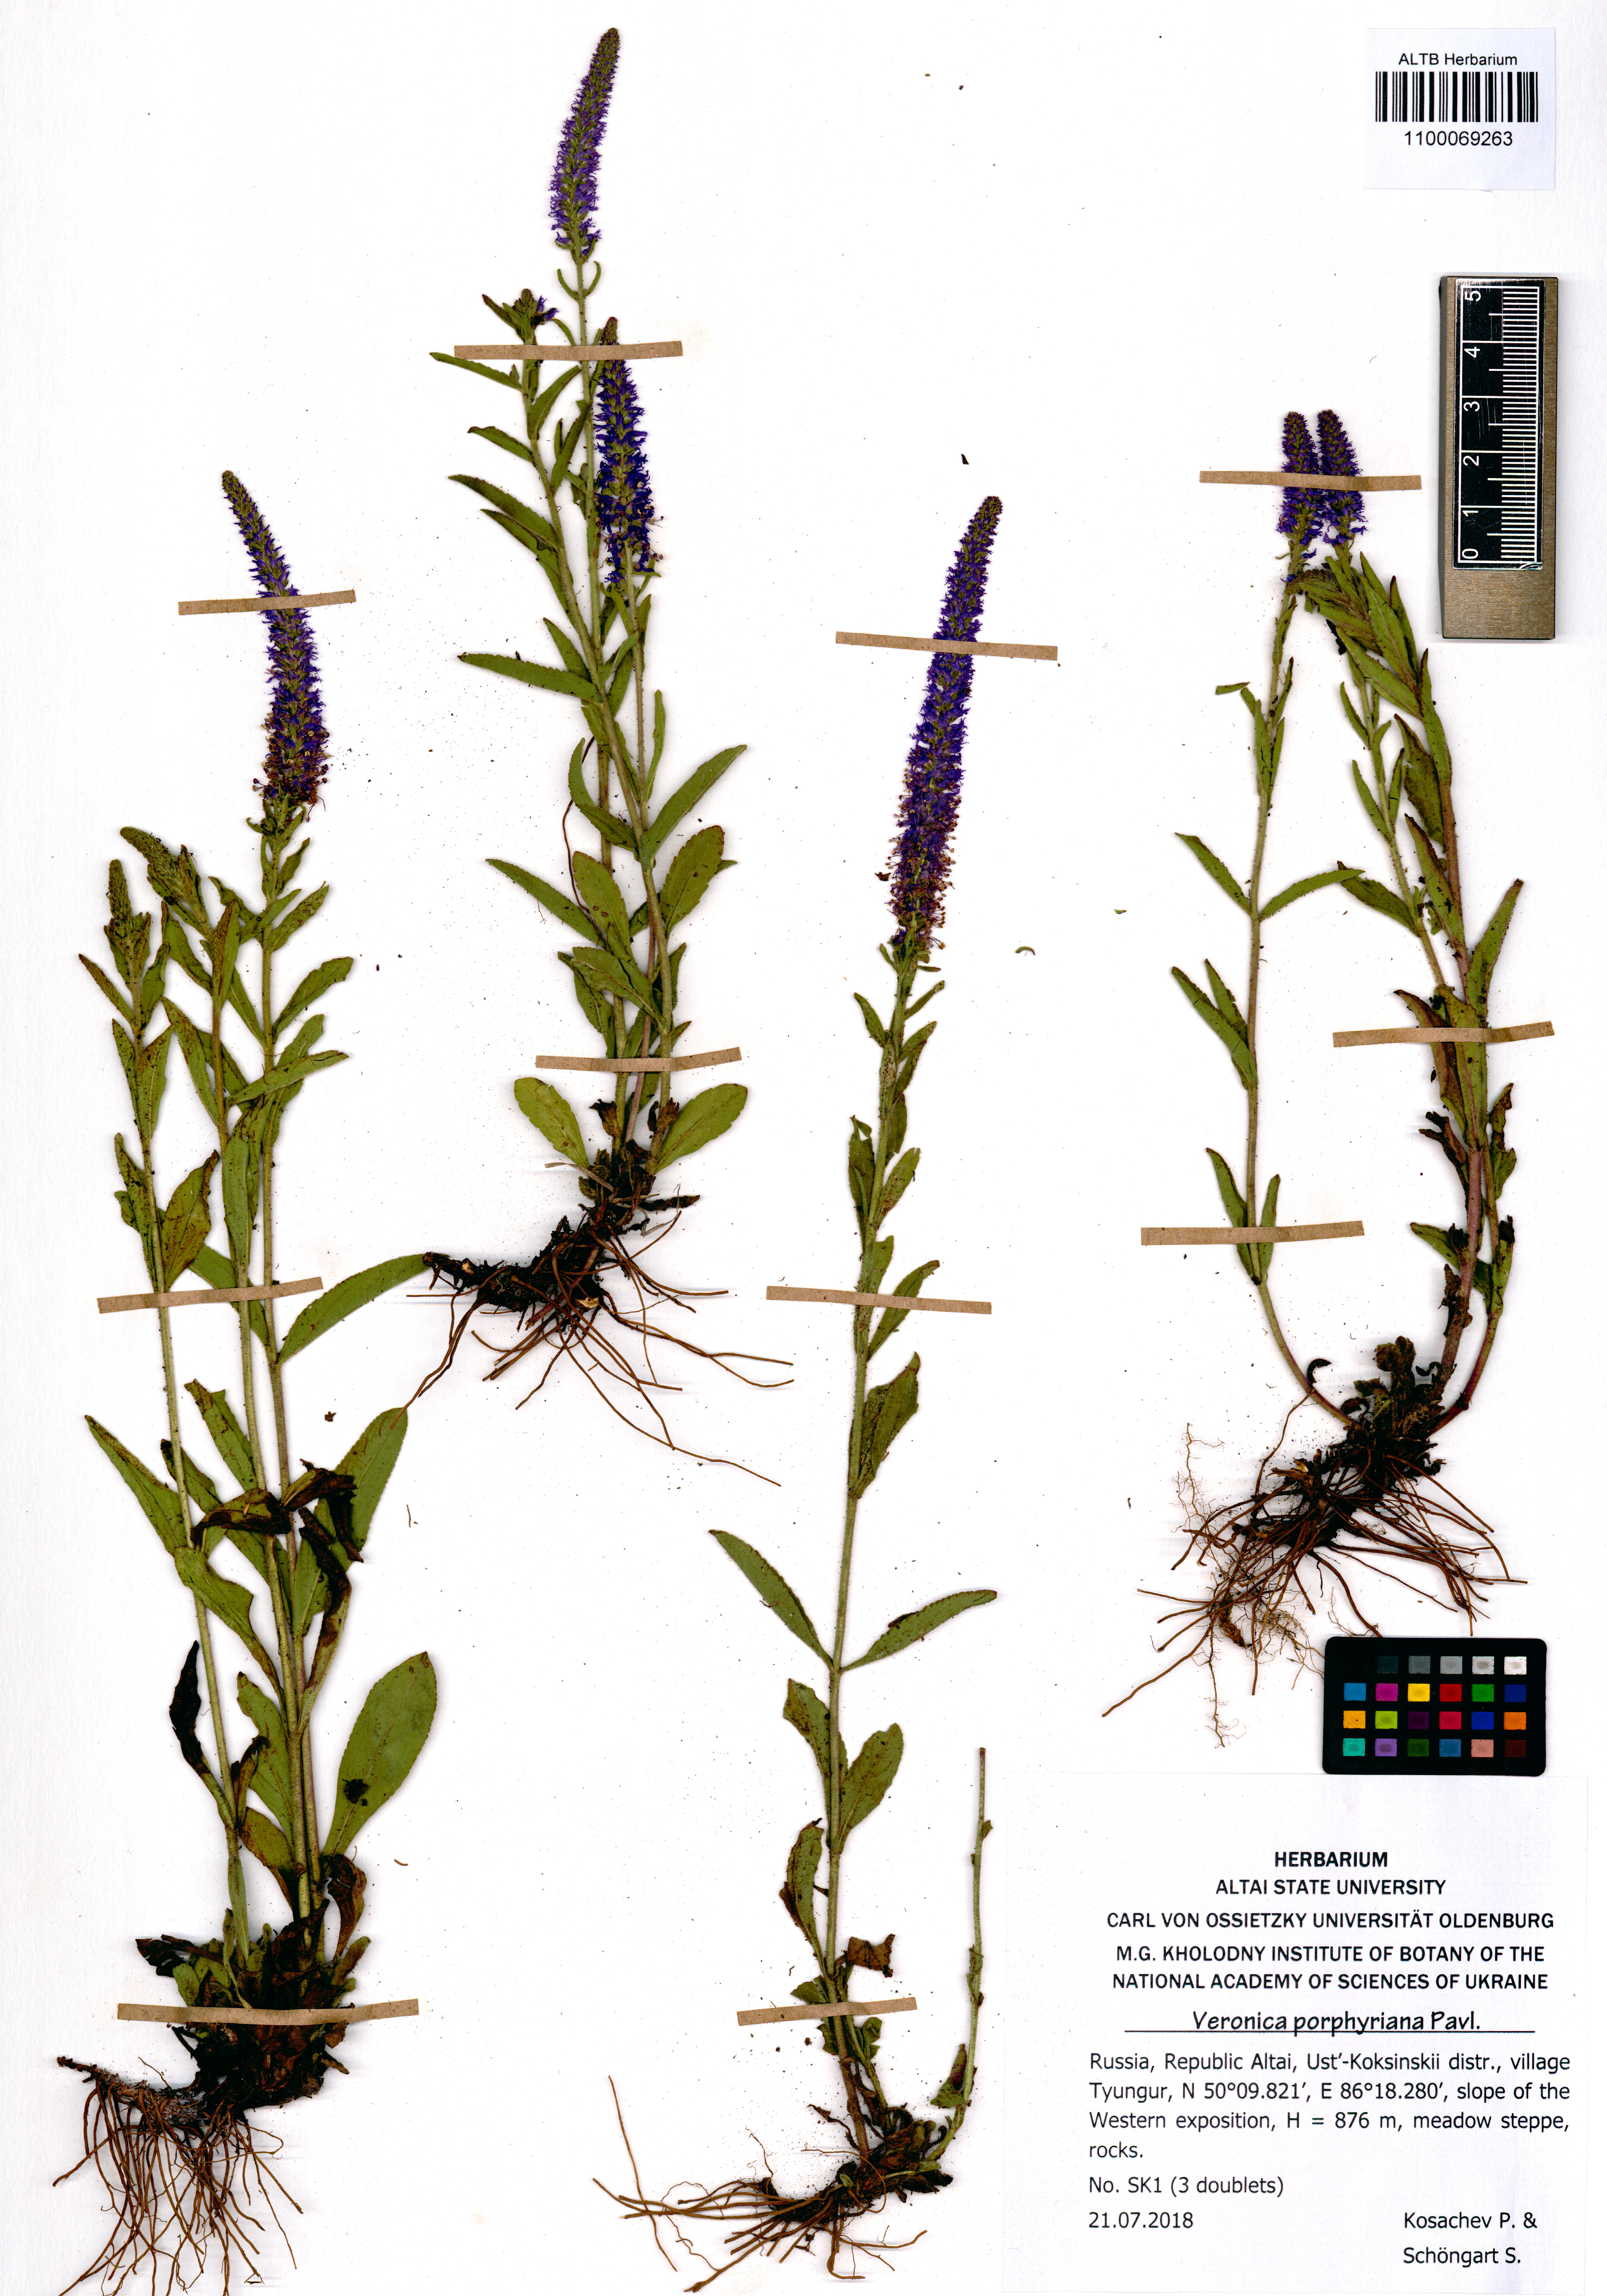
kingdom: Plantae
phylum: Tracheophyta
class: Magnoliopsida
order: Lamiales
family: Plantaginaceae
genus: Veronica
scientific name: Veronica porphyriana
